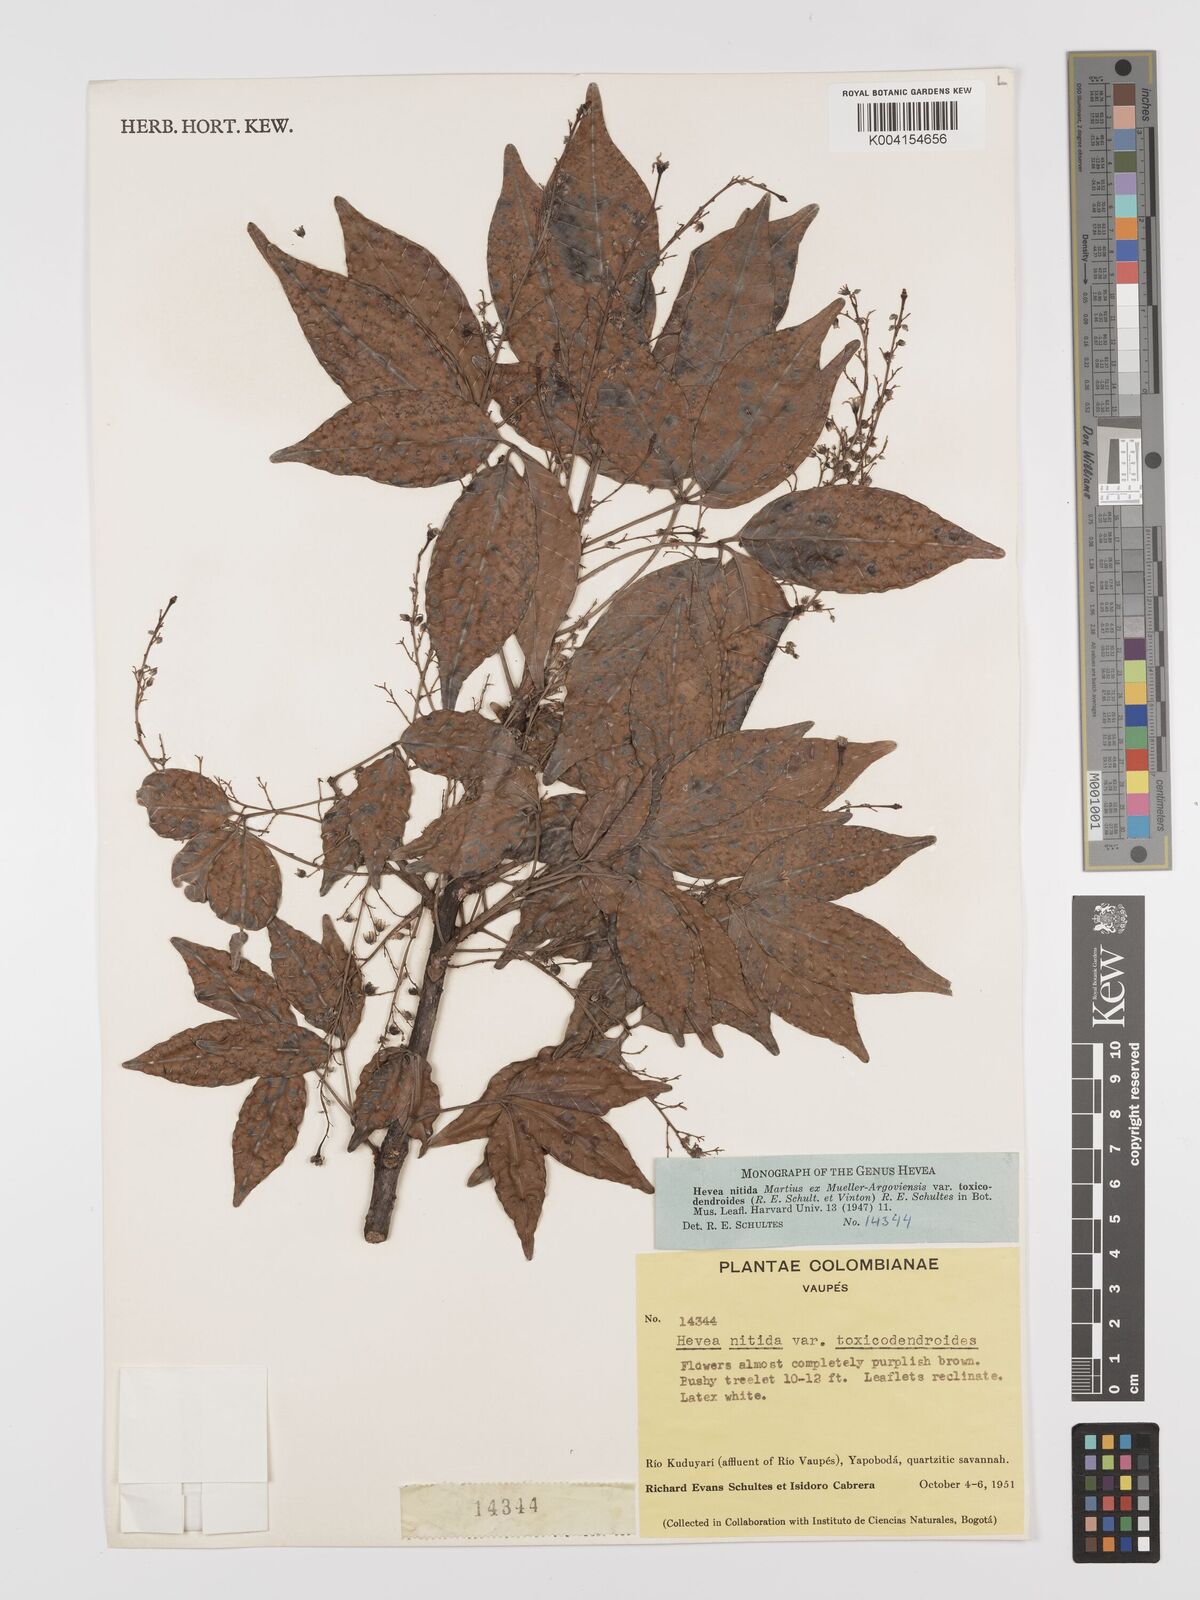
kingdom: Plantae
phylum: Tracheophyta
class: Magnoliopsida
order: Malpighiales
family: Euphorbiaceae
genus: Hevea
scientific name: Hevea nitida
